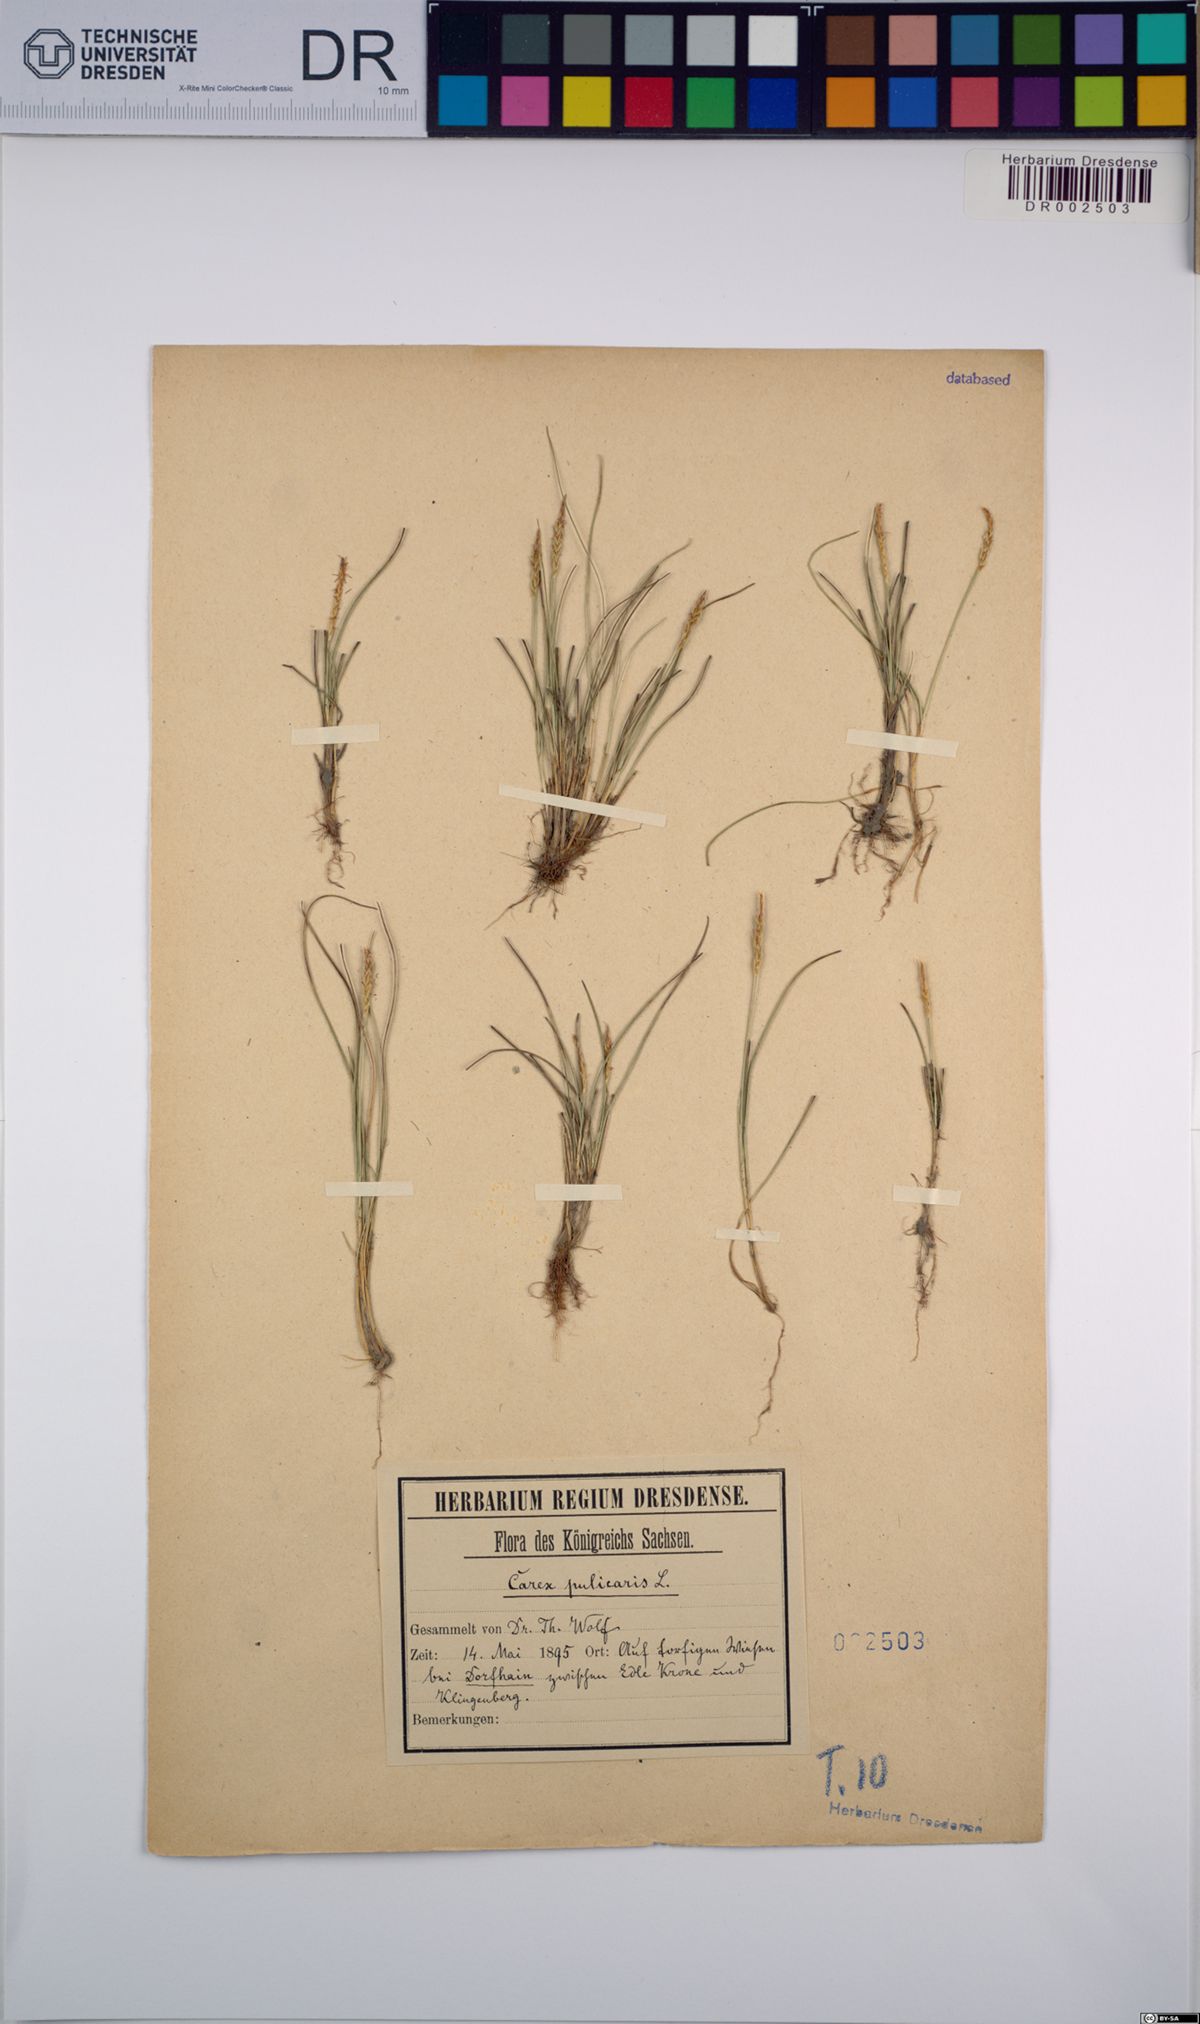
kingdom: Plantae
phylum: Tracheophyta
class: Liliopsida
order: Poales
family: Cyperaceae
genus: Carex
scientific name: Carex pulicaris
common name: Flea sedge
